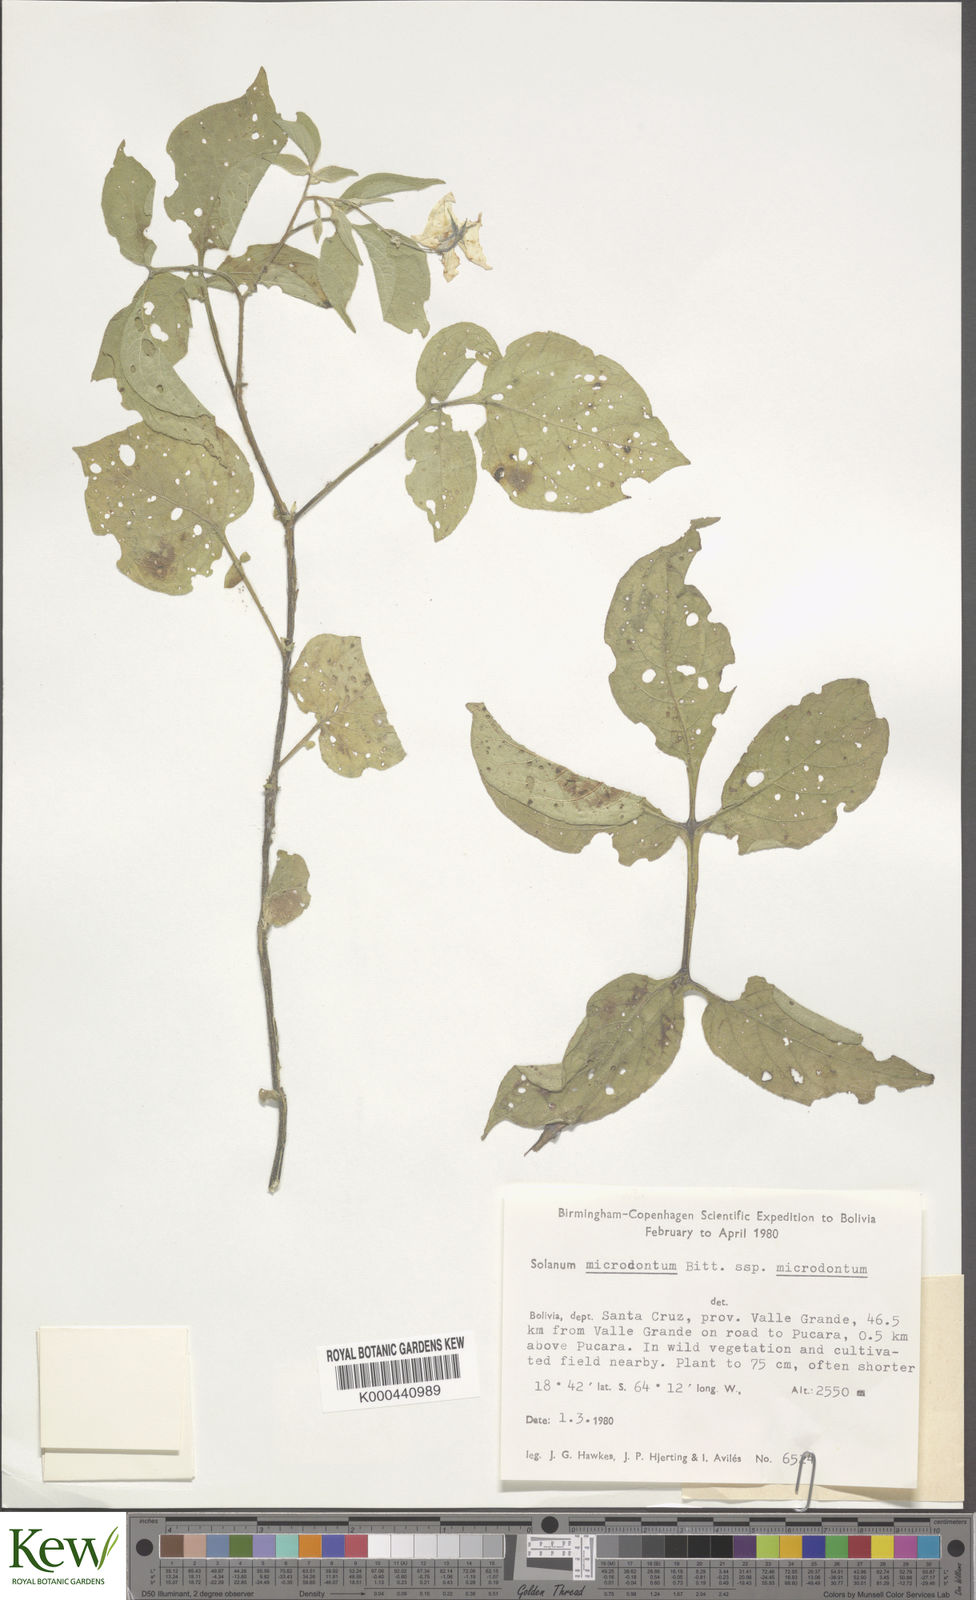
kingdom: Plantae
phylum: Tracheophyta
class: Magnoliopsida
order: Solanales
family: Solanaceae
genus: Solanum
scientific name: Solanum microdontum
